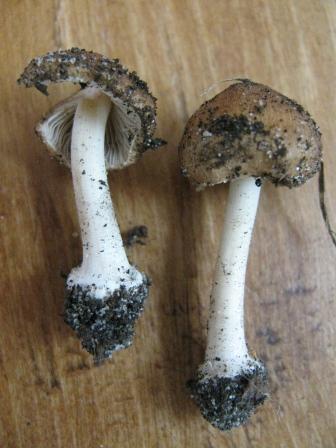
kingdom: Fungi
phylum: Basidiomycota
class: Agaricomycetes
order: Agaricales
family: Inocybaceae
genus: Inocybe
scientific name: Inocybe mixtilis
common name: randknoldet trævlhat
